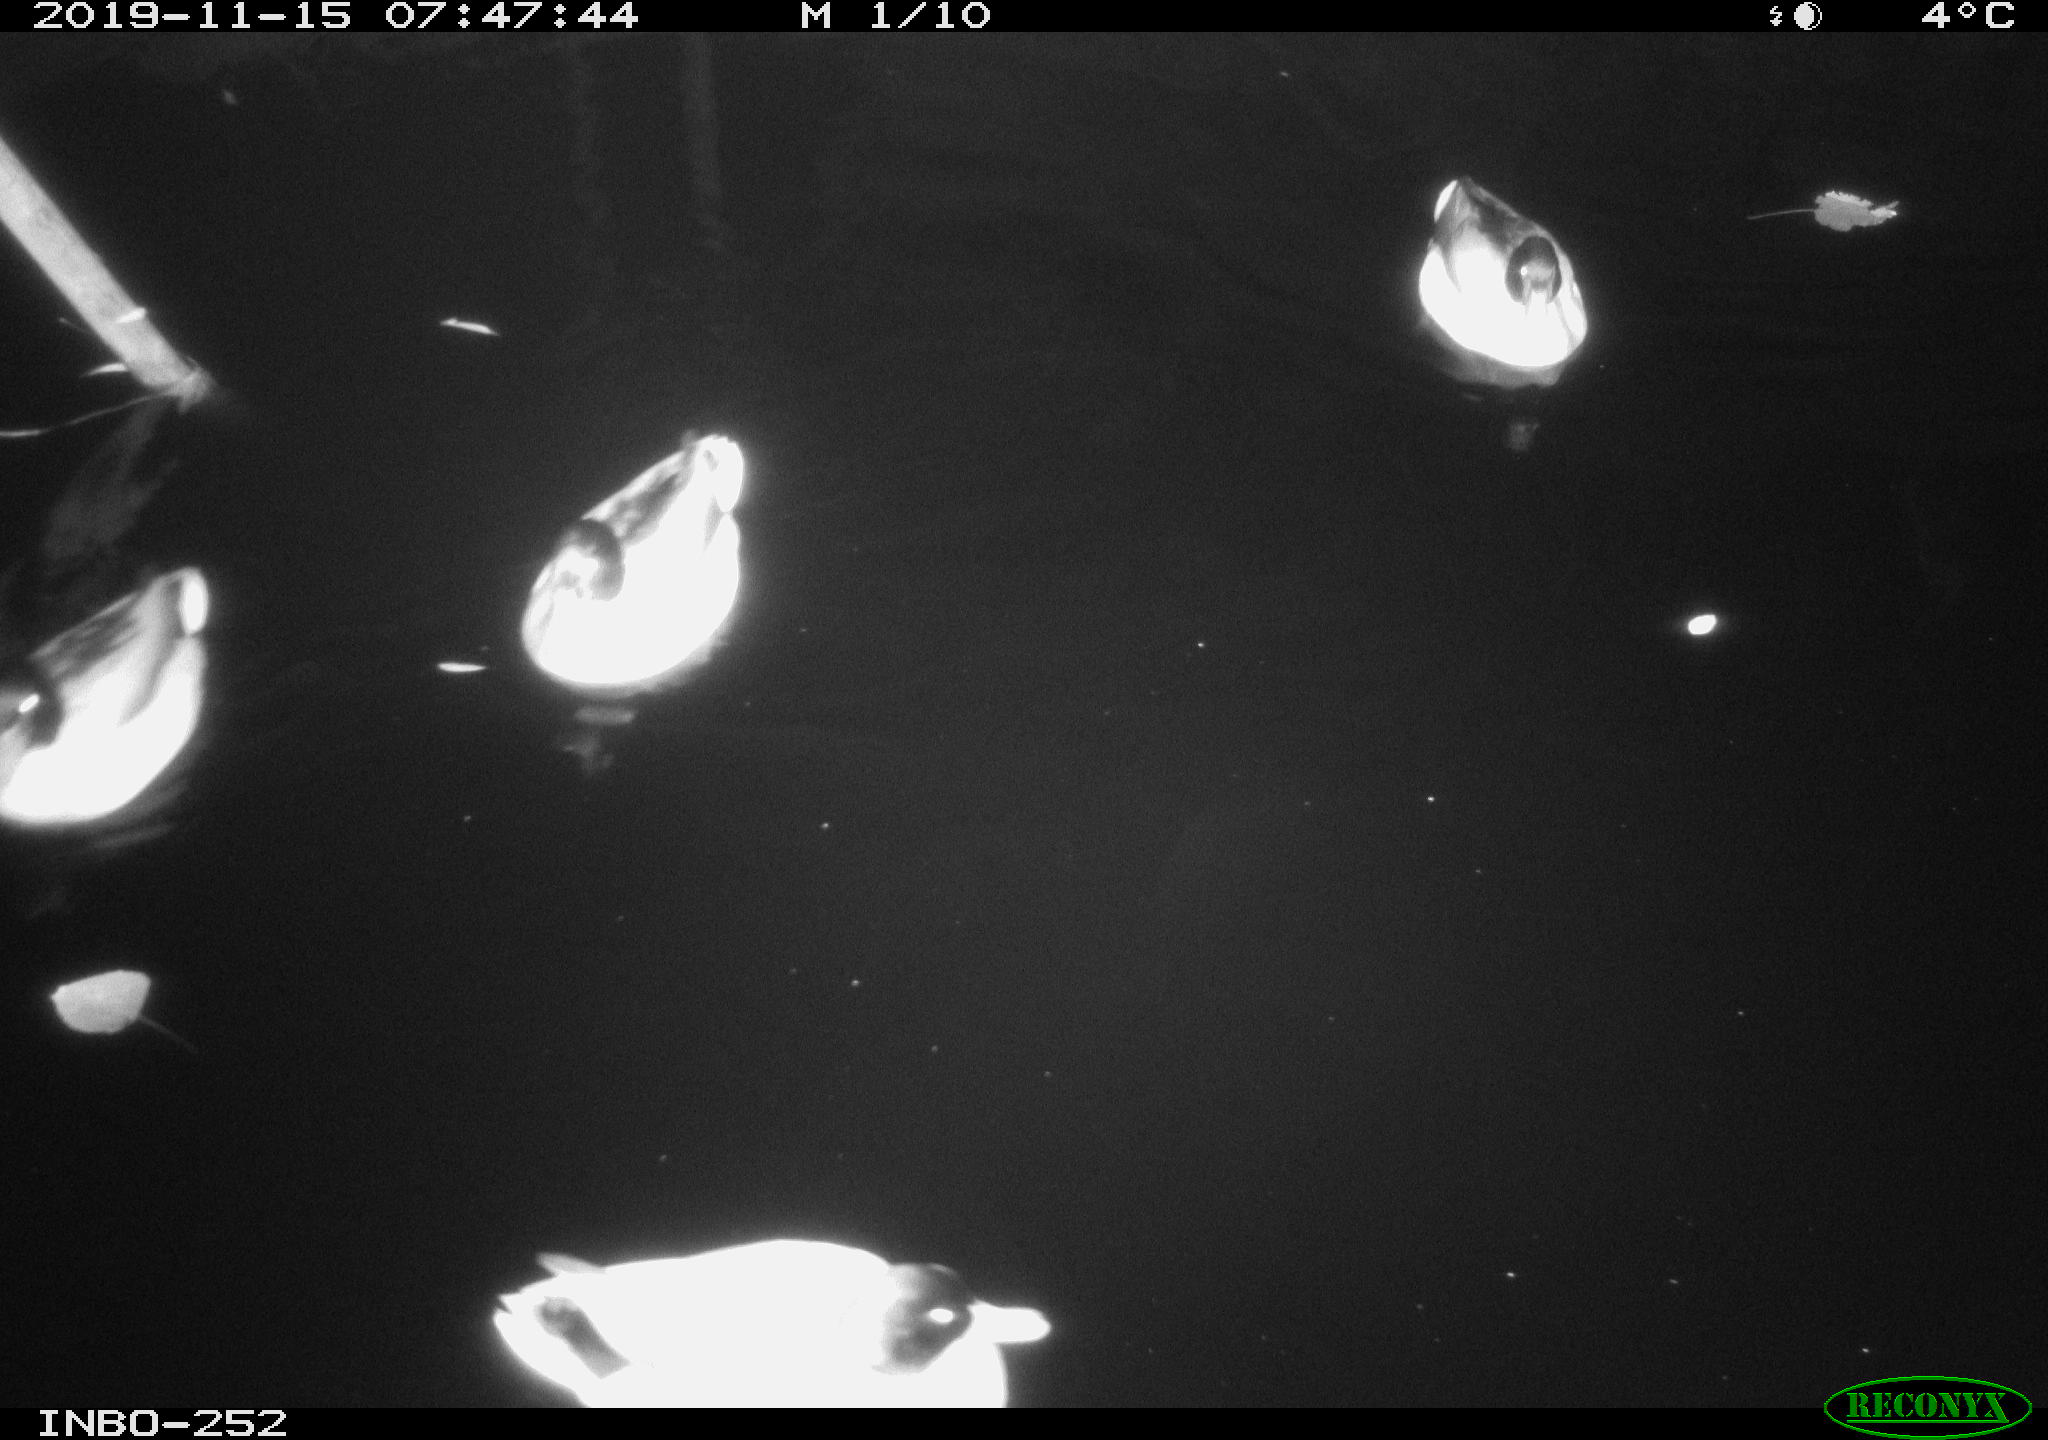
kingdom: Animalia
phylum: Chordata
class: Aves
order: Anseriformes
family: Anatidae
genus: Anas
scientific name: Anas platyrhynchos
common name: Mallard
